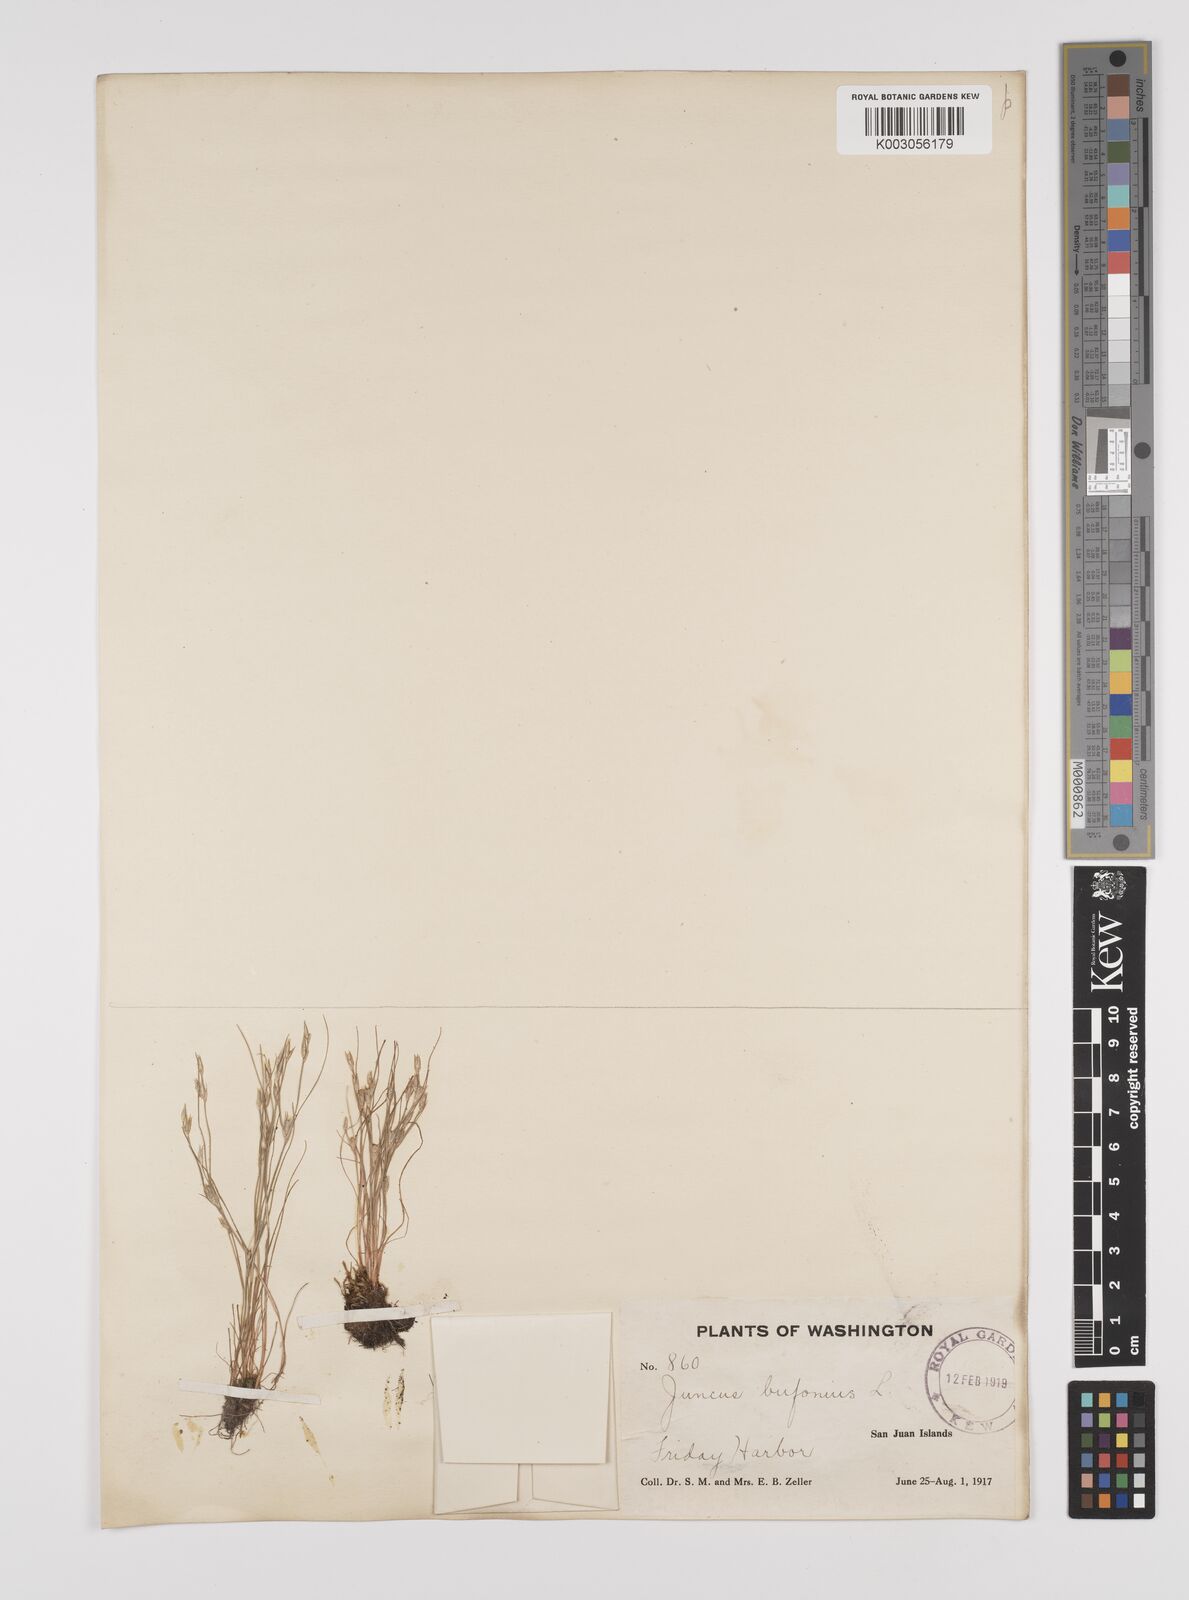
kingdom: Plantae
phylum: Tracheophyta
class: Liliopsida
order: Poales
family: Juncaceae
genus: Juncus
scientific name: Juncus bufonius
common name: Toad rush
